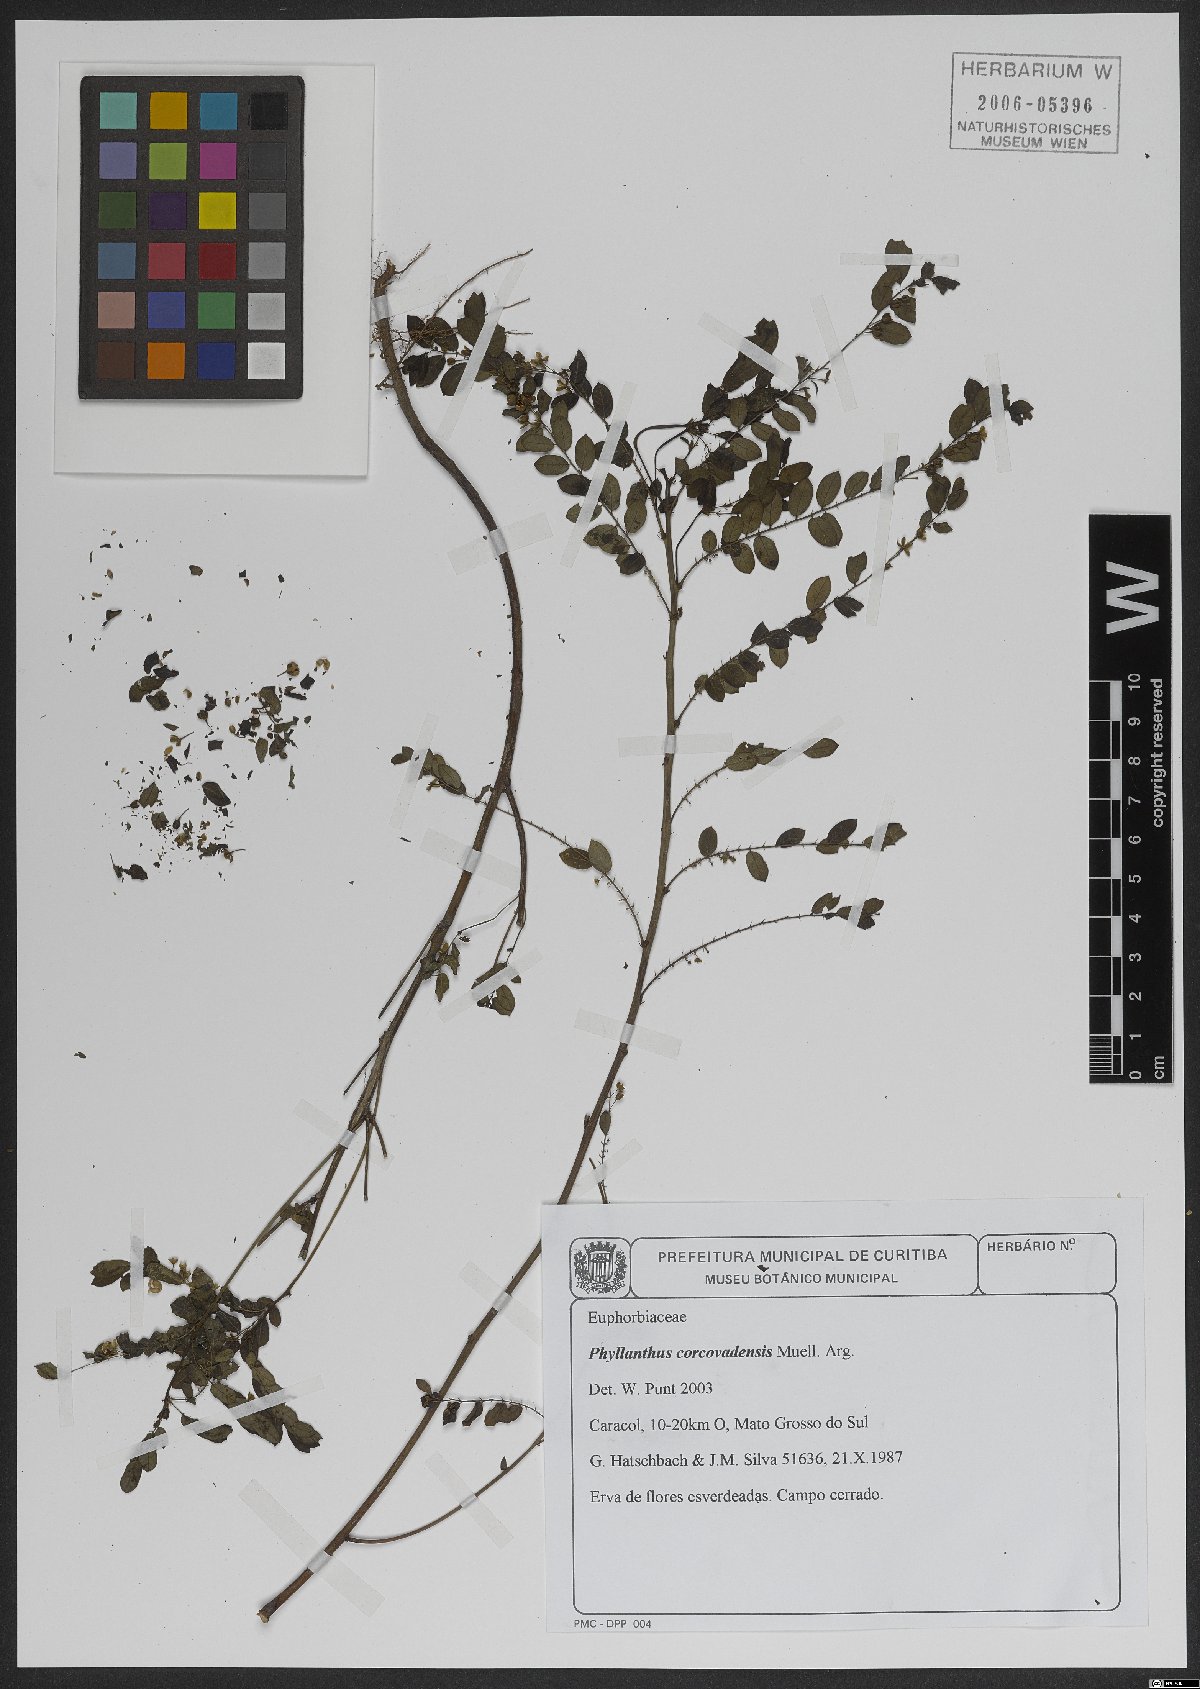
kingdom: Plantae
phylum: Tracheophyta
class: Magnoliopsida
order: Malpighiales
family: Phyllanthaceae
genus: Phyllanthus
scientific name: Phyllanthus tenellus
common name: Mascarene island leaf-flower
